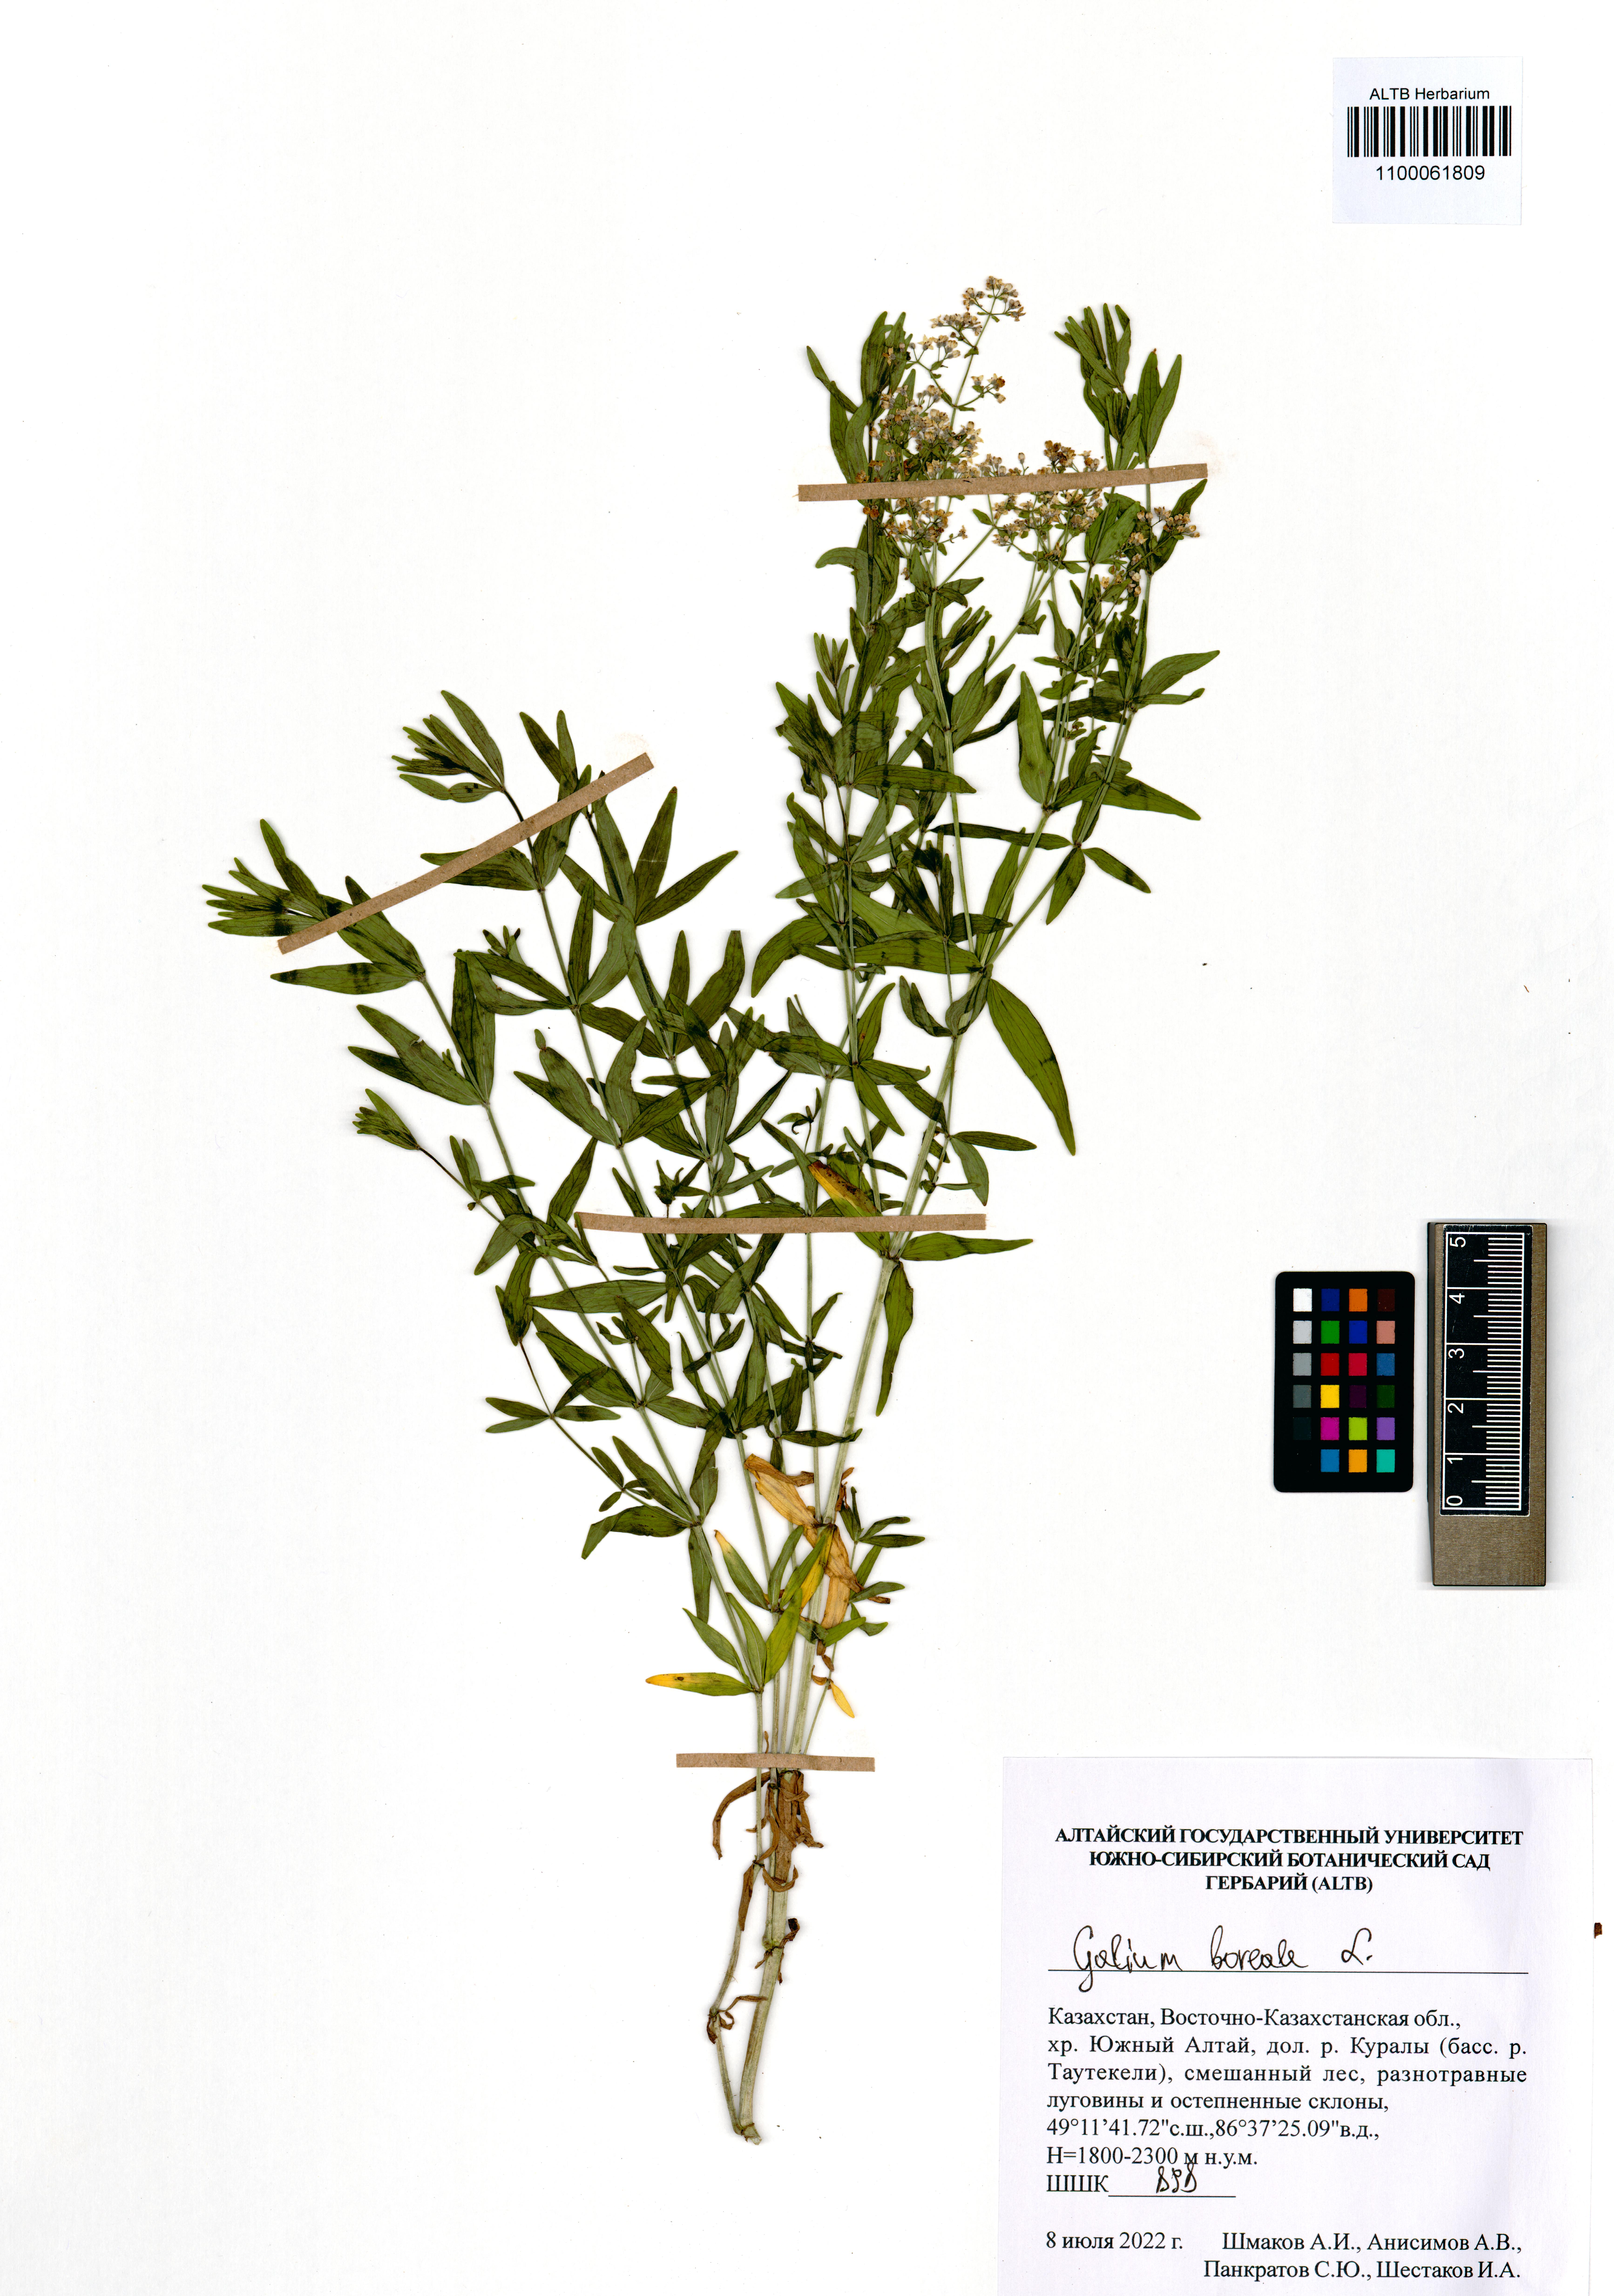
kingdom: Plantae
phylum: Tracheophyta
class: Magnoliopsida
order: Gentianales
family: Rubiaceae
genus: Galium
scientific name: Galium boreale
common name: Northern bedstraw
